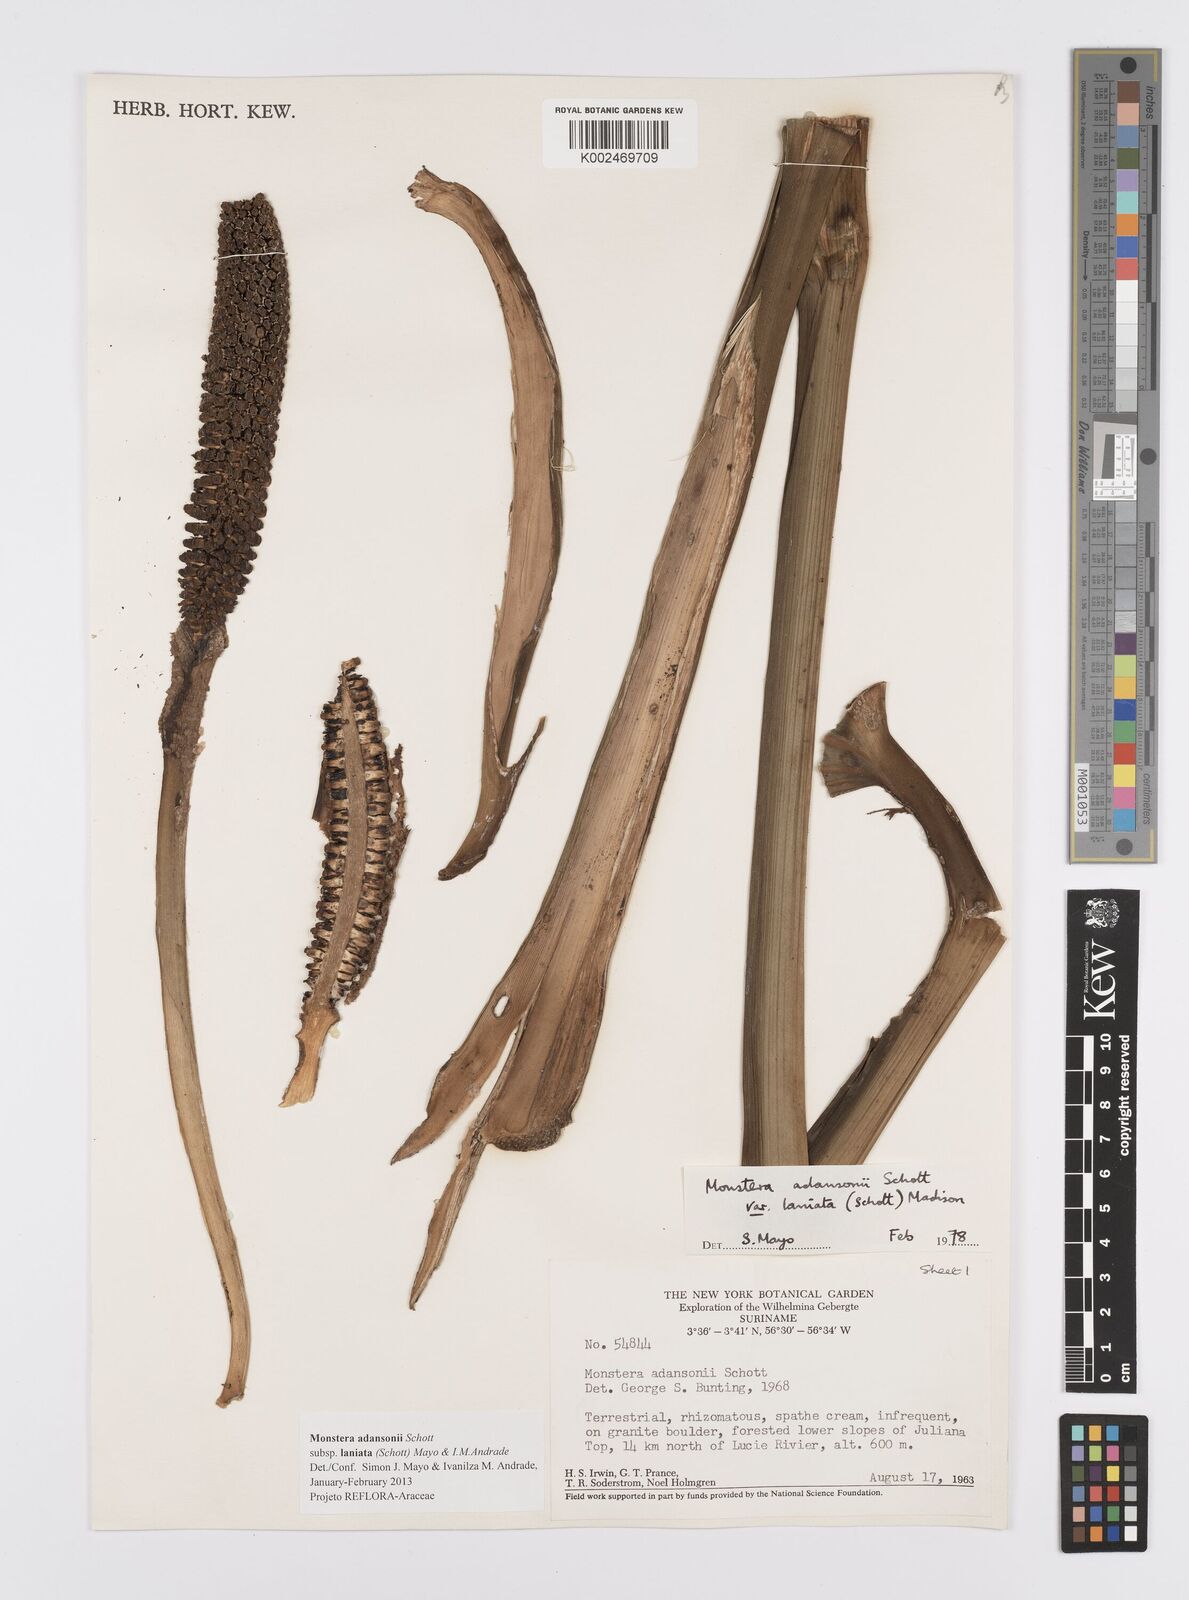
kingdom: Plantae
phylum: Tracheophyta
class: Liliopsida
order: Alismatales
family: Araceae
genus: Monstera
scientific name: Monstera adansonii
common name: Tarovine
